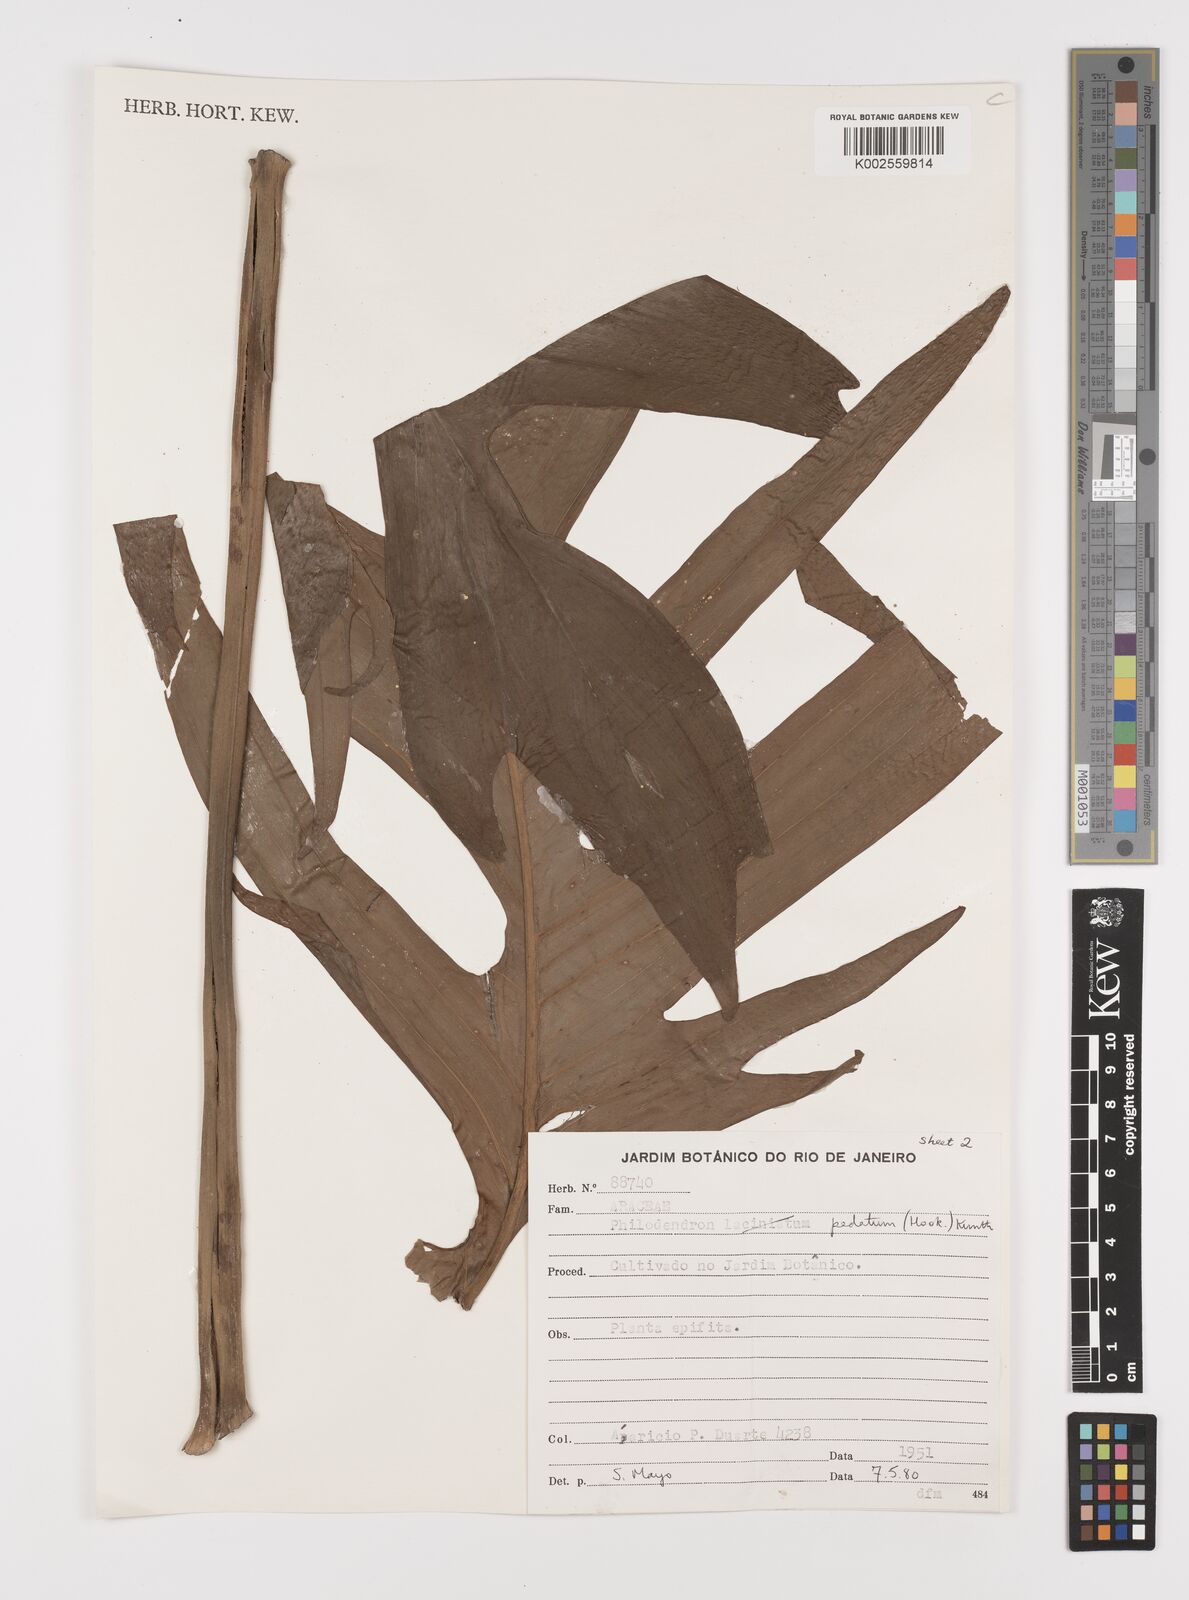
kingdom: Plantae
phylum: Tracheophyta
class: Liliopsida
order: Alismatales
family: Araceae
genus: Philodendron
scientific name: Philodendron pedatum
